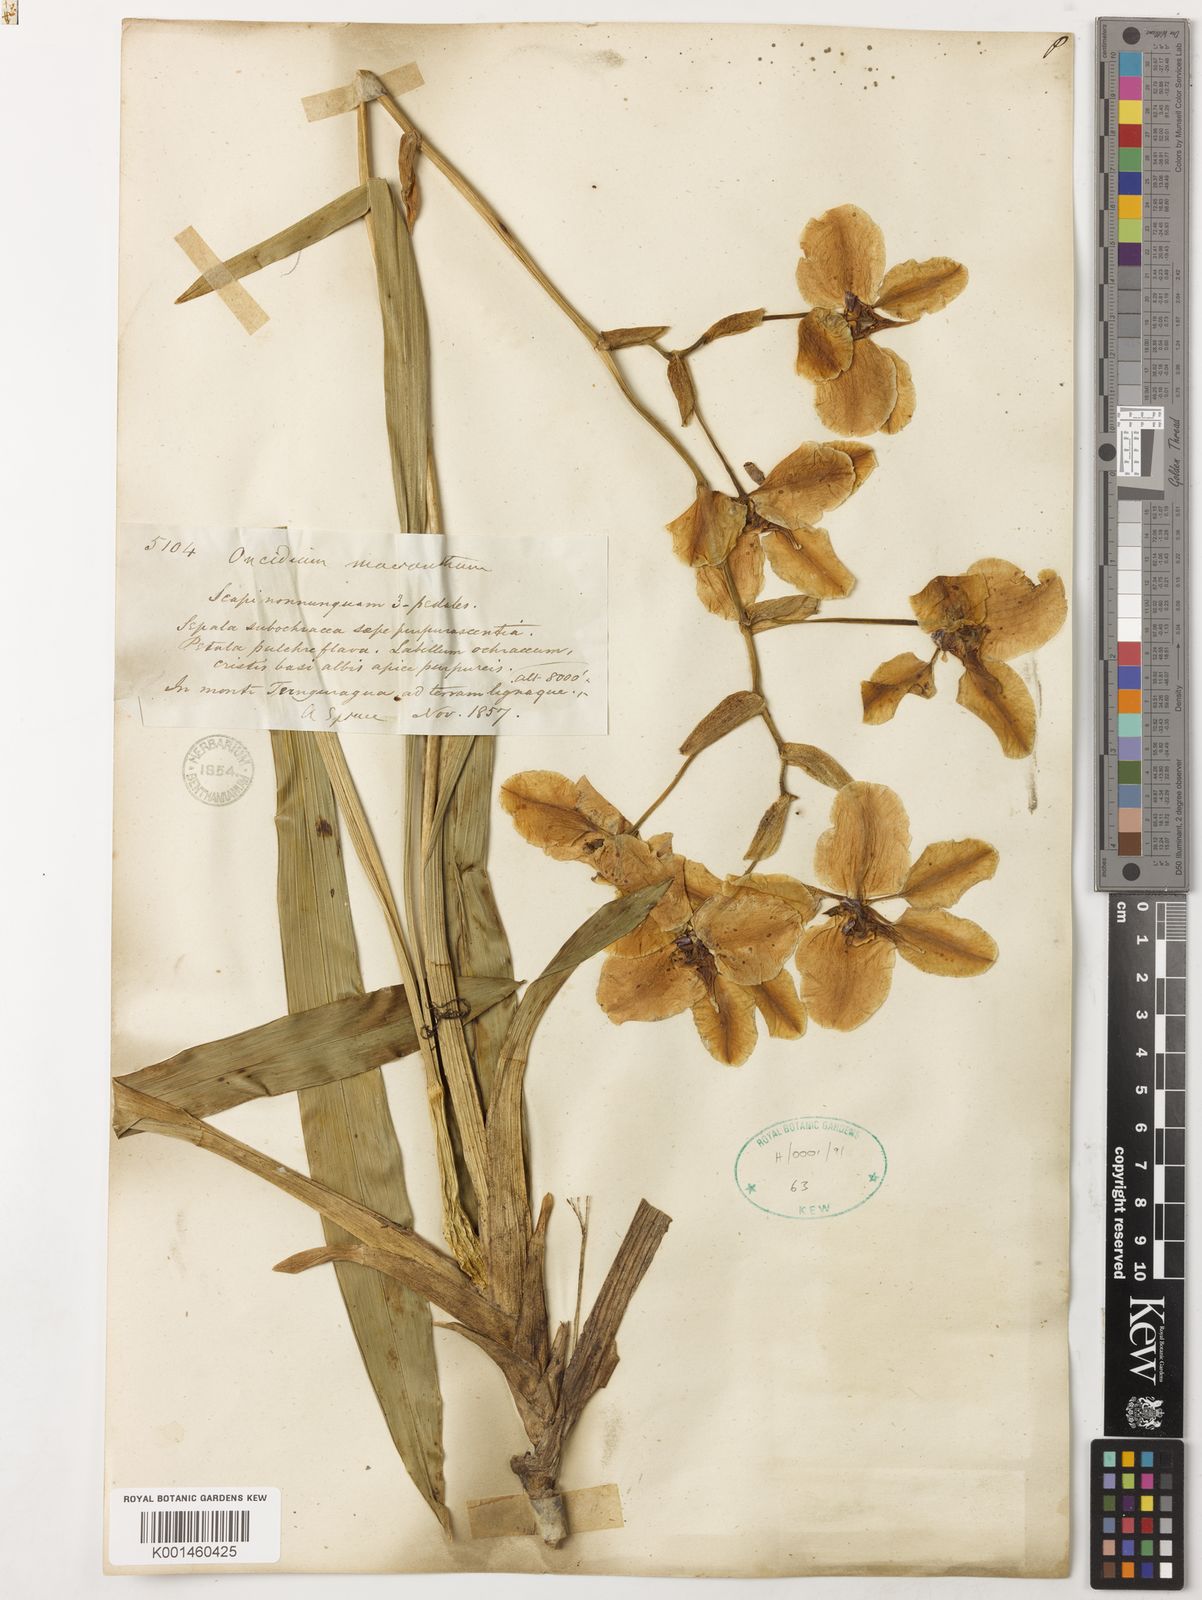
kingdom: Plantae
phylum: Tracheophyta
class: Liliopsida
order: Asparagales
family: Orchidaceae
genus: Cyrtochilum
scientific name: Cyrtochilum macranthum
